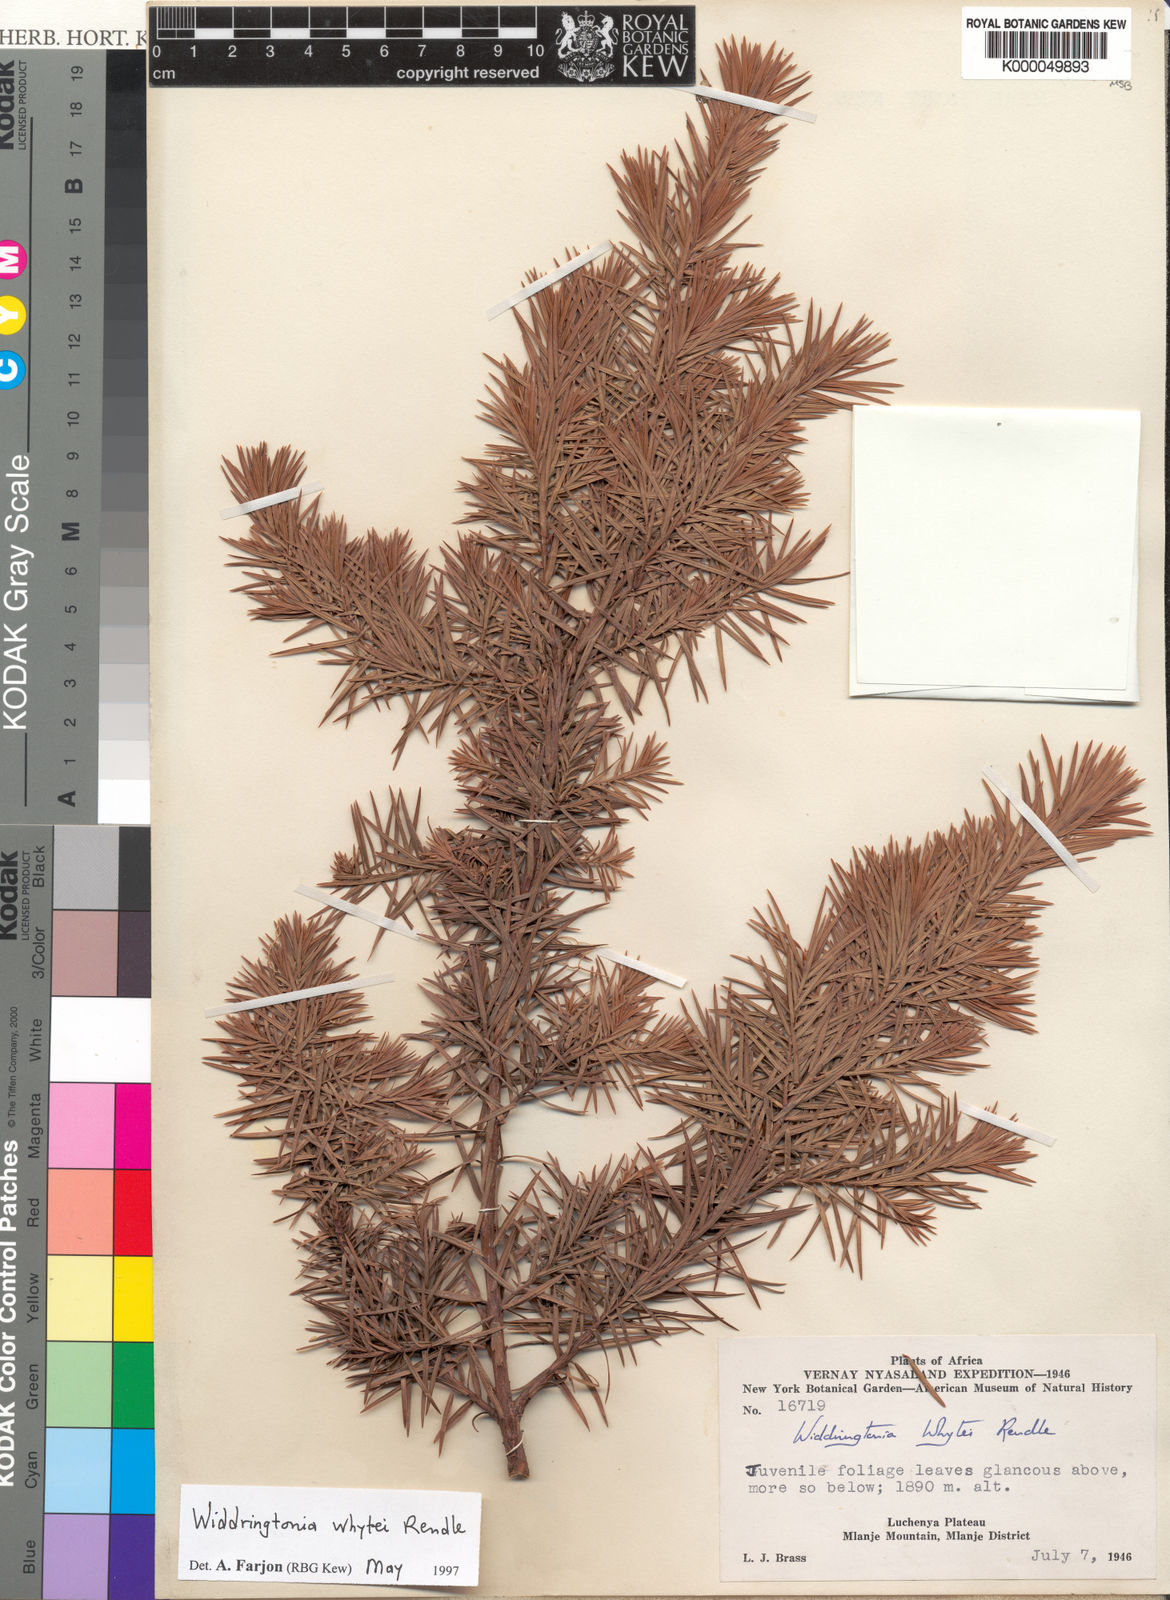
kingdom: Plantae
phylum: Tracheophyta
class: Pinopsida
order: Pinales
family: Cupressaceae
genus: Widdringtonia
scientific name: Widdringtonia whytei
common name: Mulanje cedar
